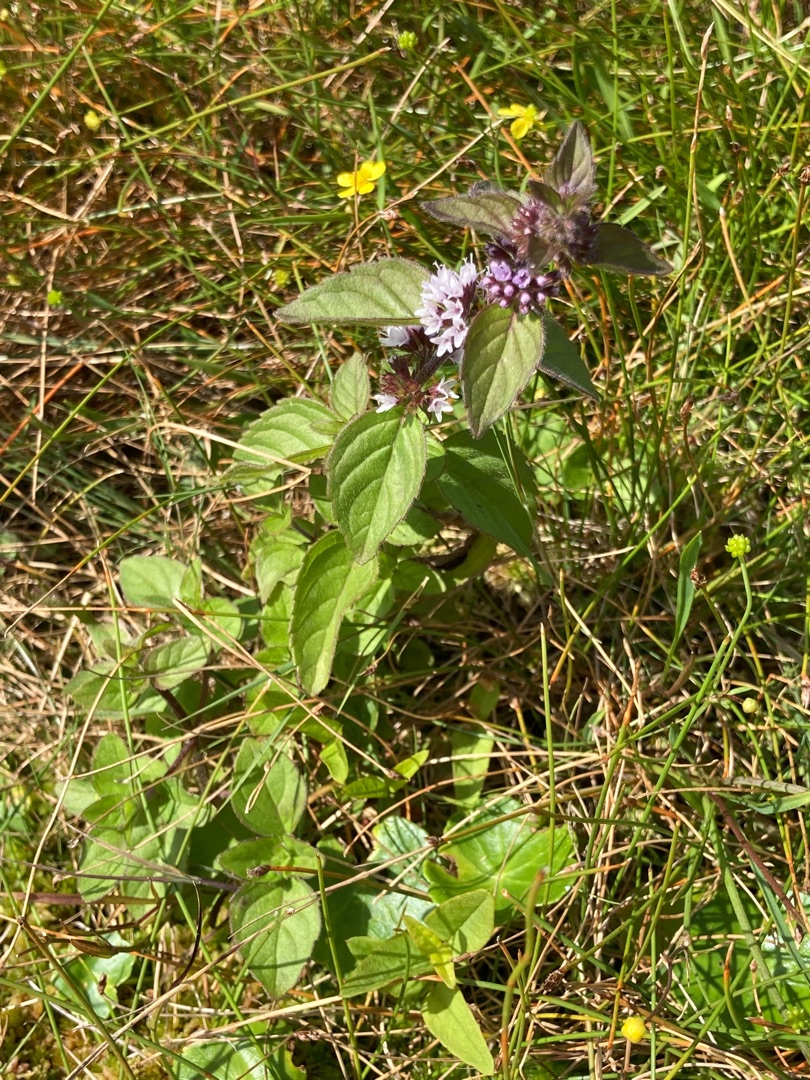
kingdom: Plantae
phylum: Tracheophyta
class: Magnoliopsida
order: Lamiales
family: Lamiaceae
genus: Mentha
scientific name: Mentha verticillata
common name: Krans-mynte
